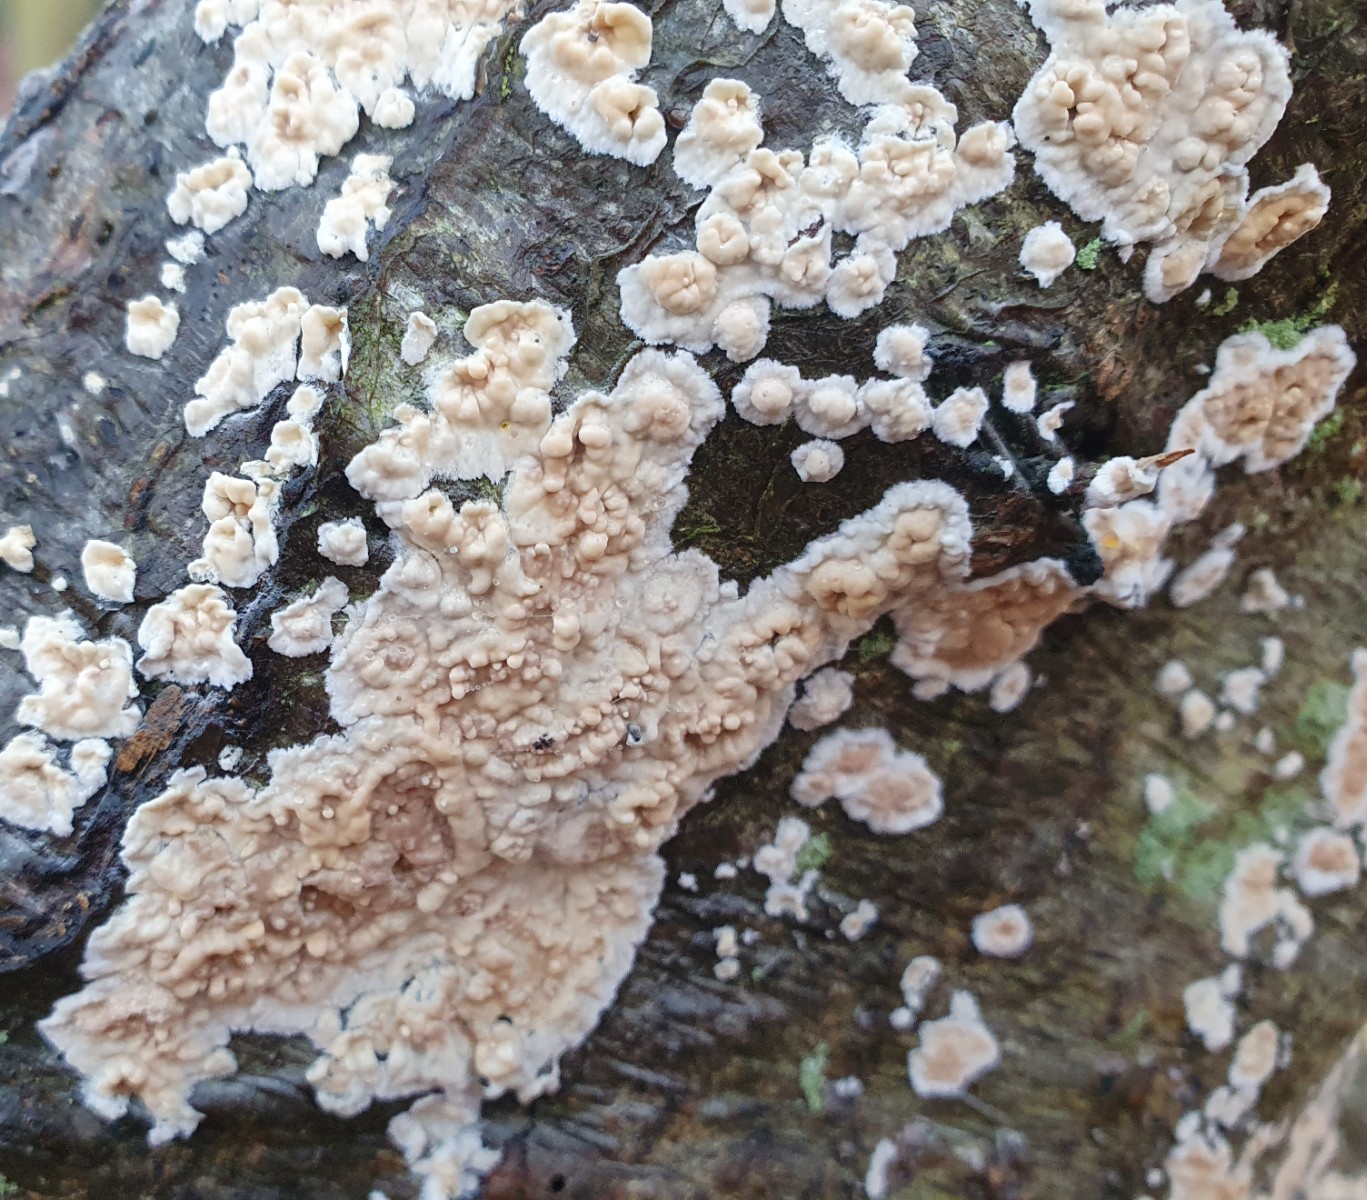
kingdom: Fungi
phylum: Basidiomycota
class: Agaricomycetes
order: Agaricales
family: Physalacriaceae
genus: Cylindrobasidium
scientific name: Cylindrobasidium evolvens
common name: sprækkehinde
